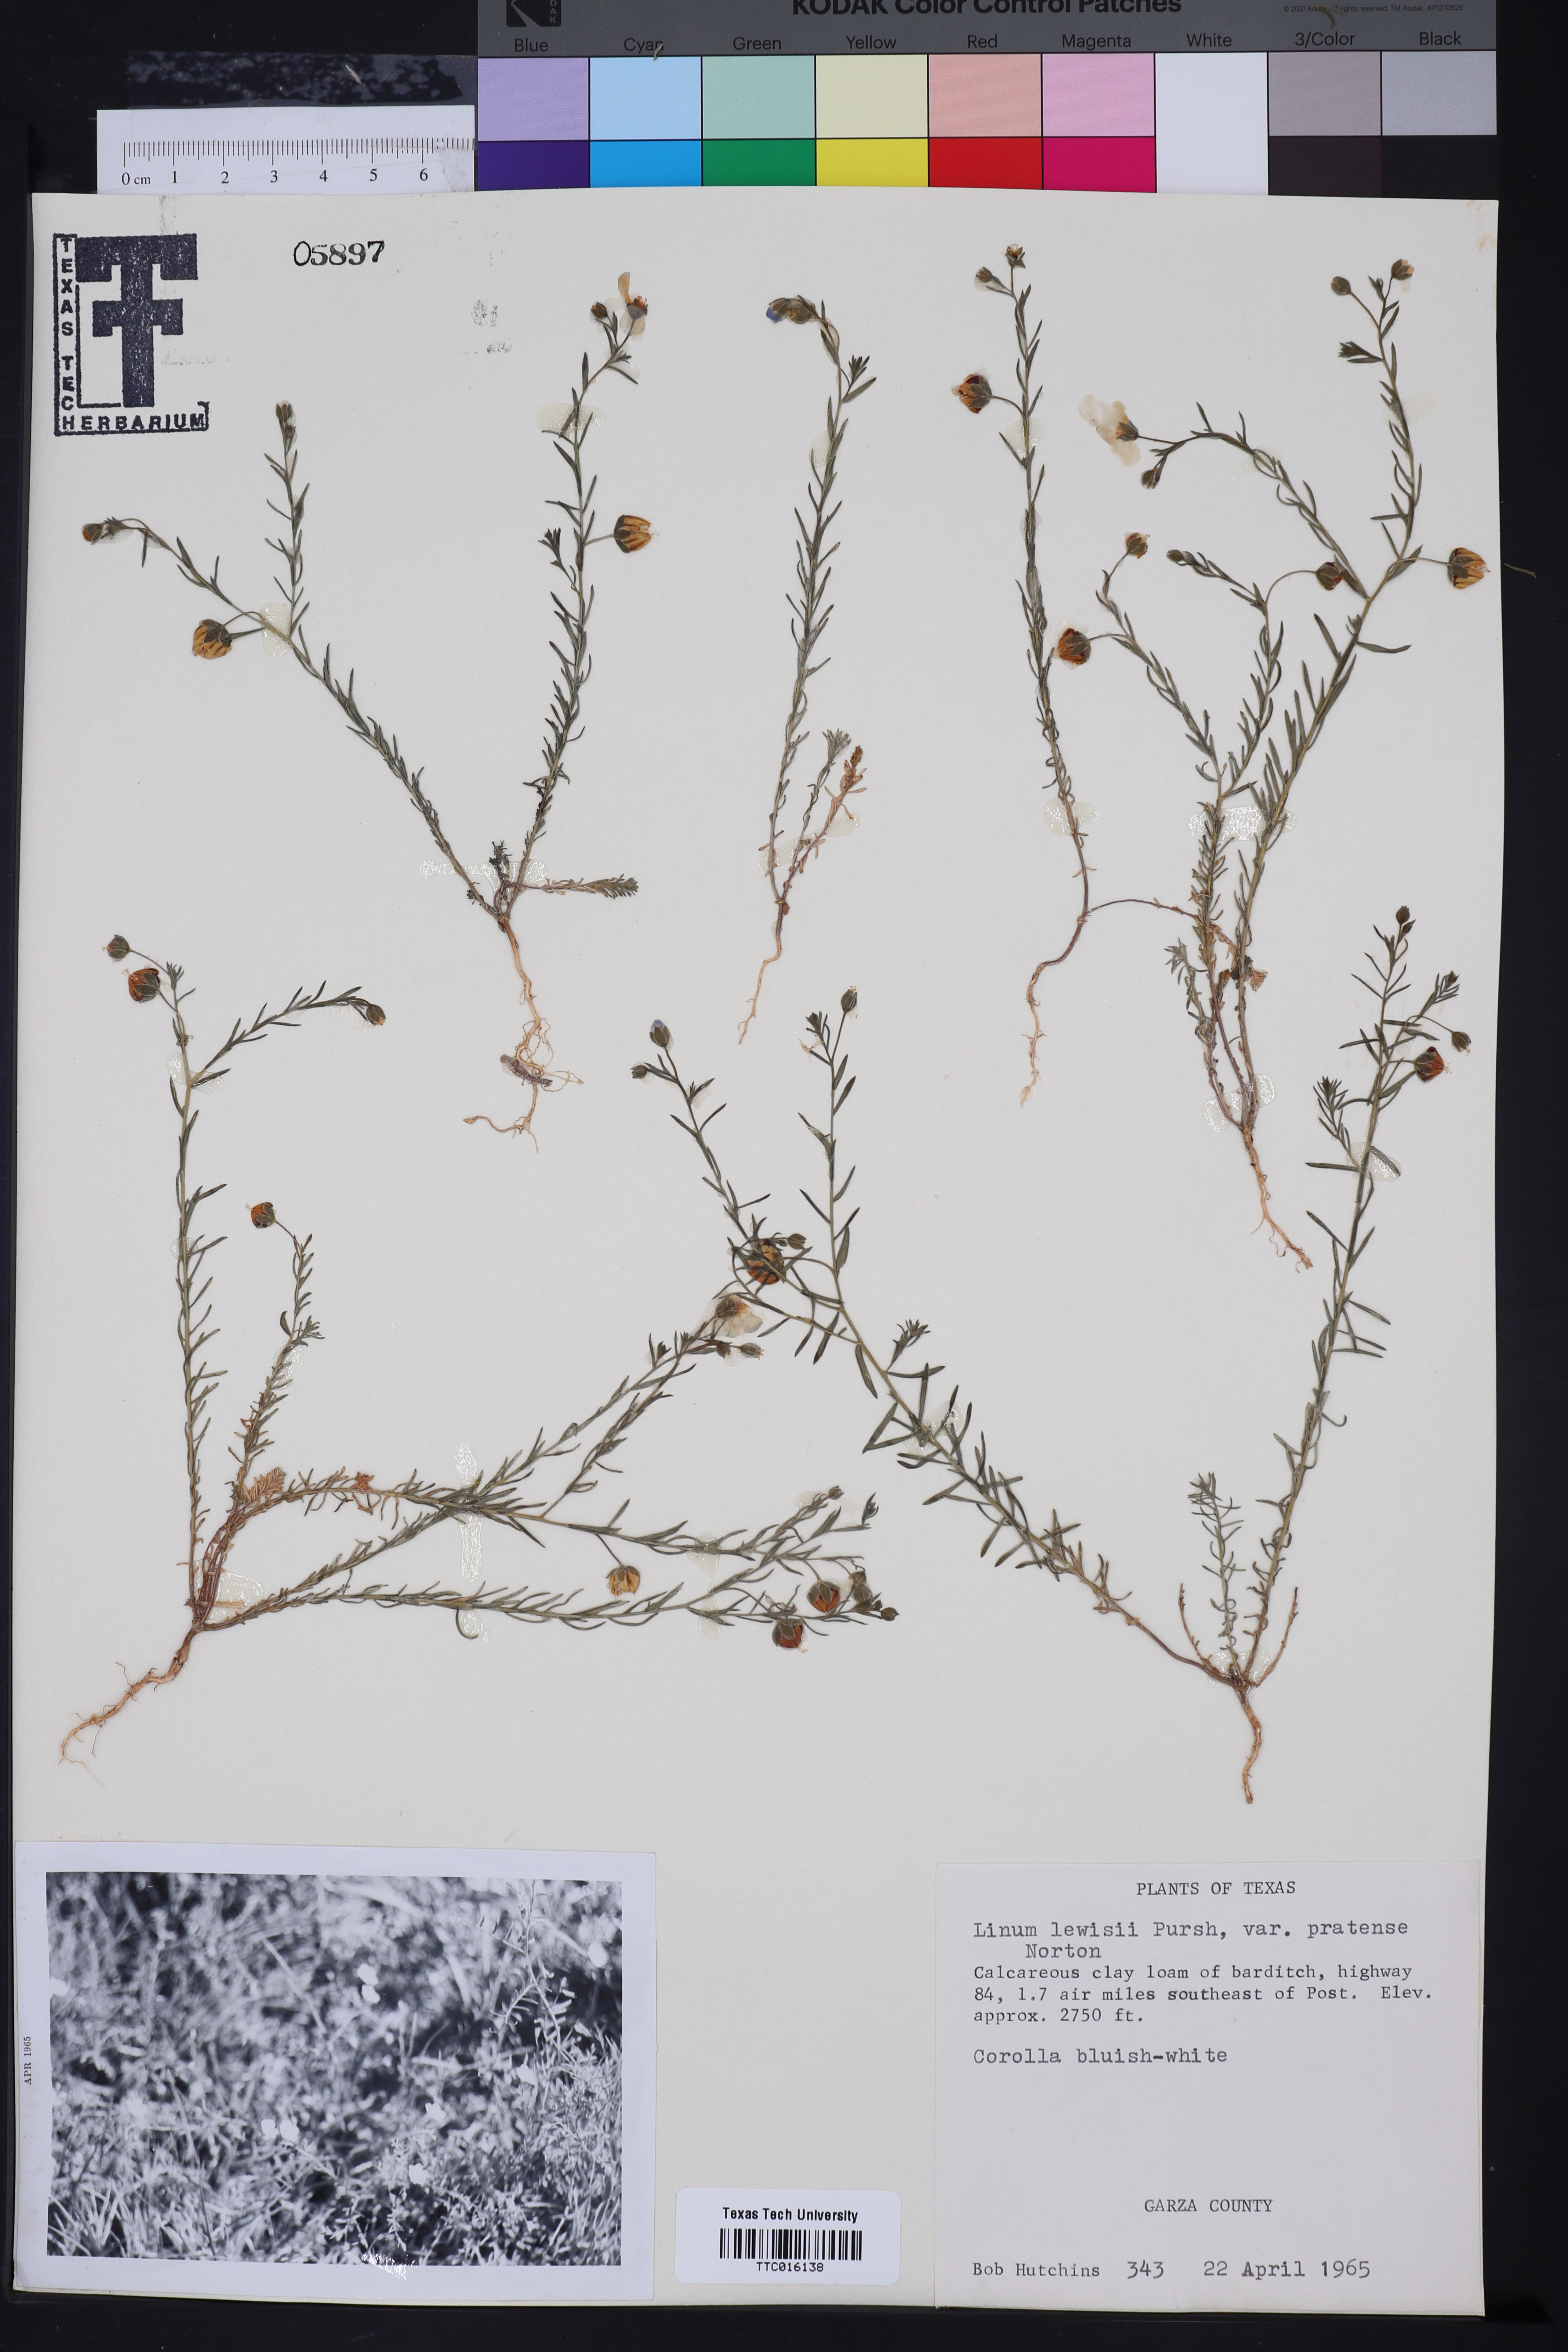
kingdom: Plantae
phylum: Tracheophyta
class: Magnoliopsida
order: Malpighiales
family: Linaceae
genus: Linum
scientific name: Linum pratense
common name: Norton's flax
